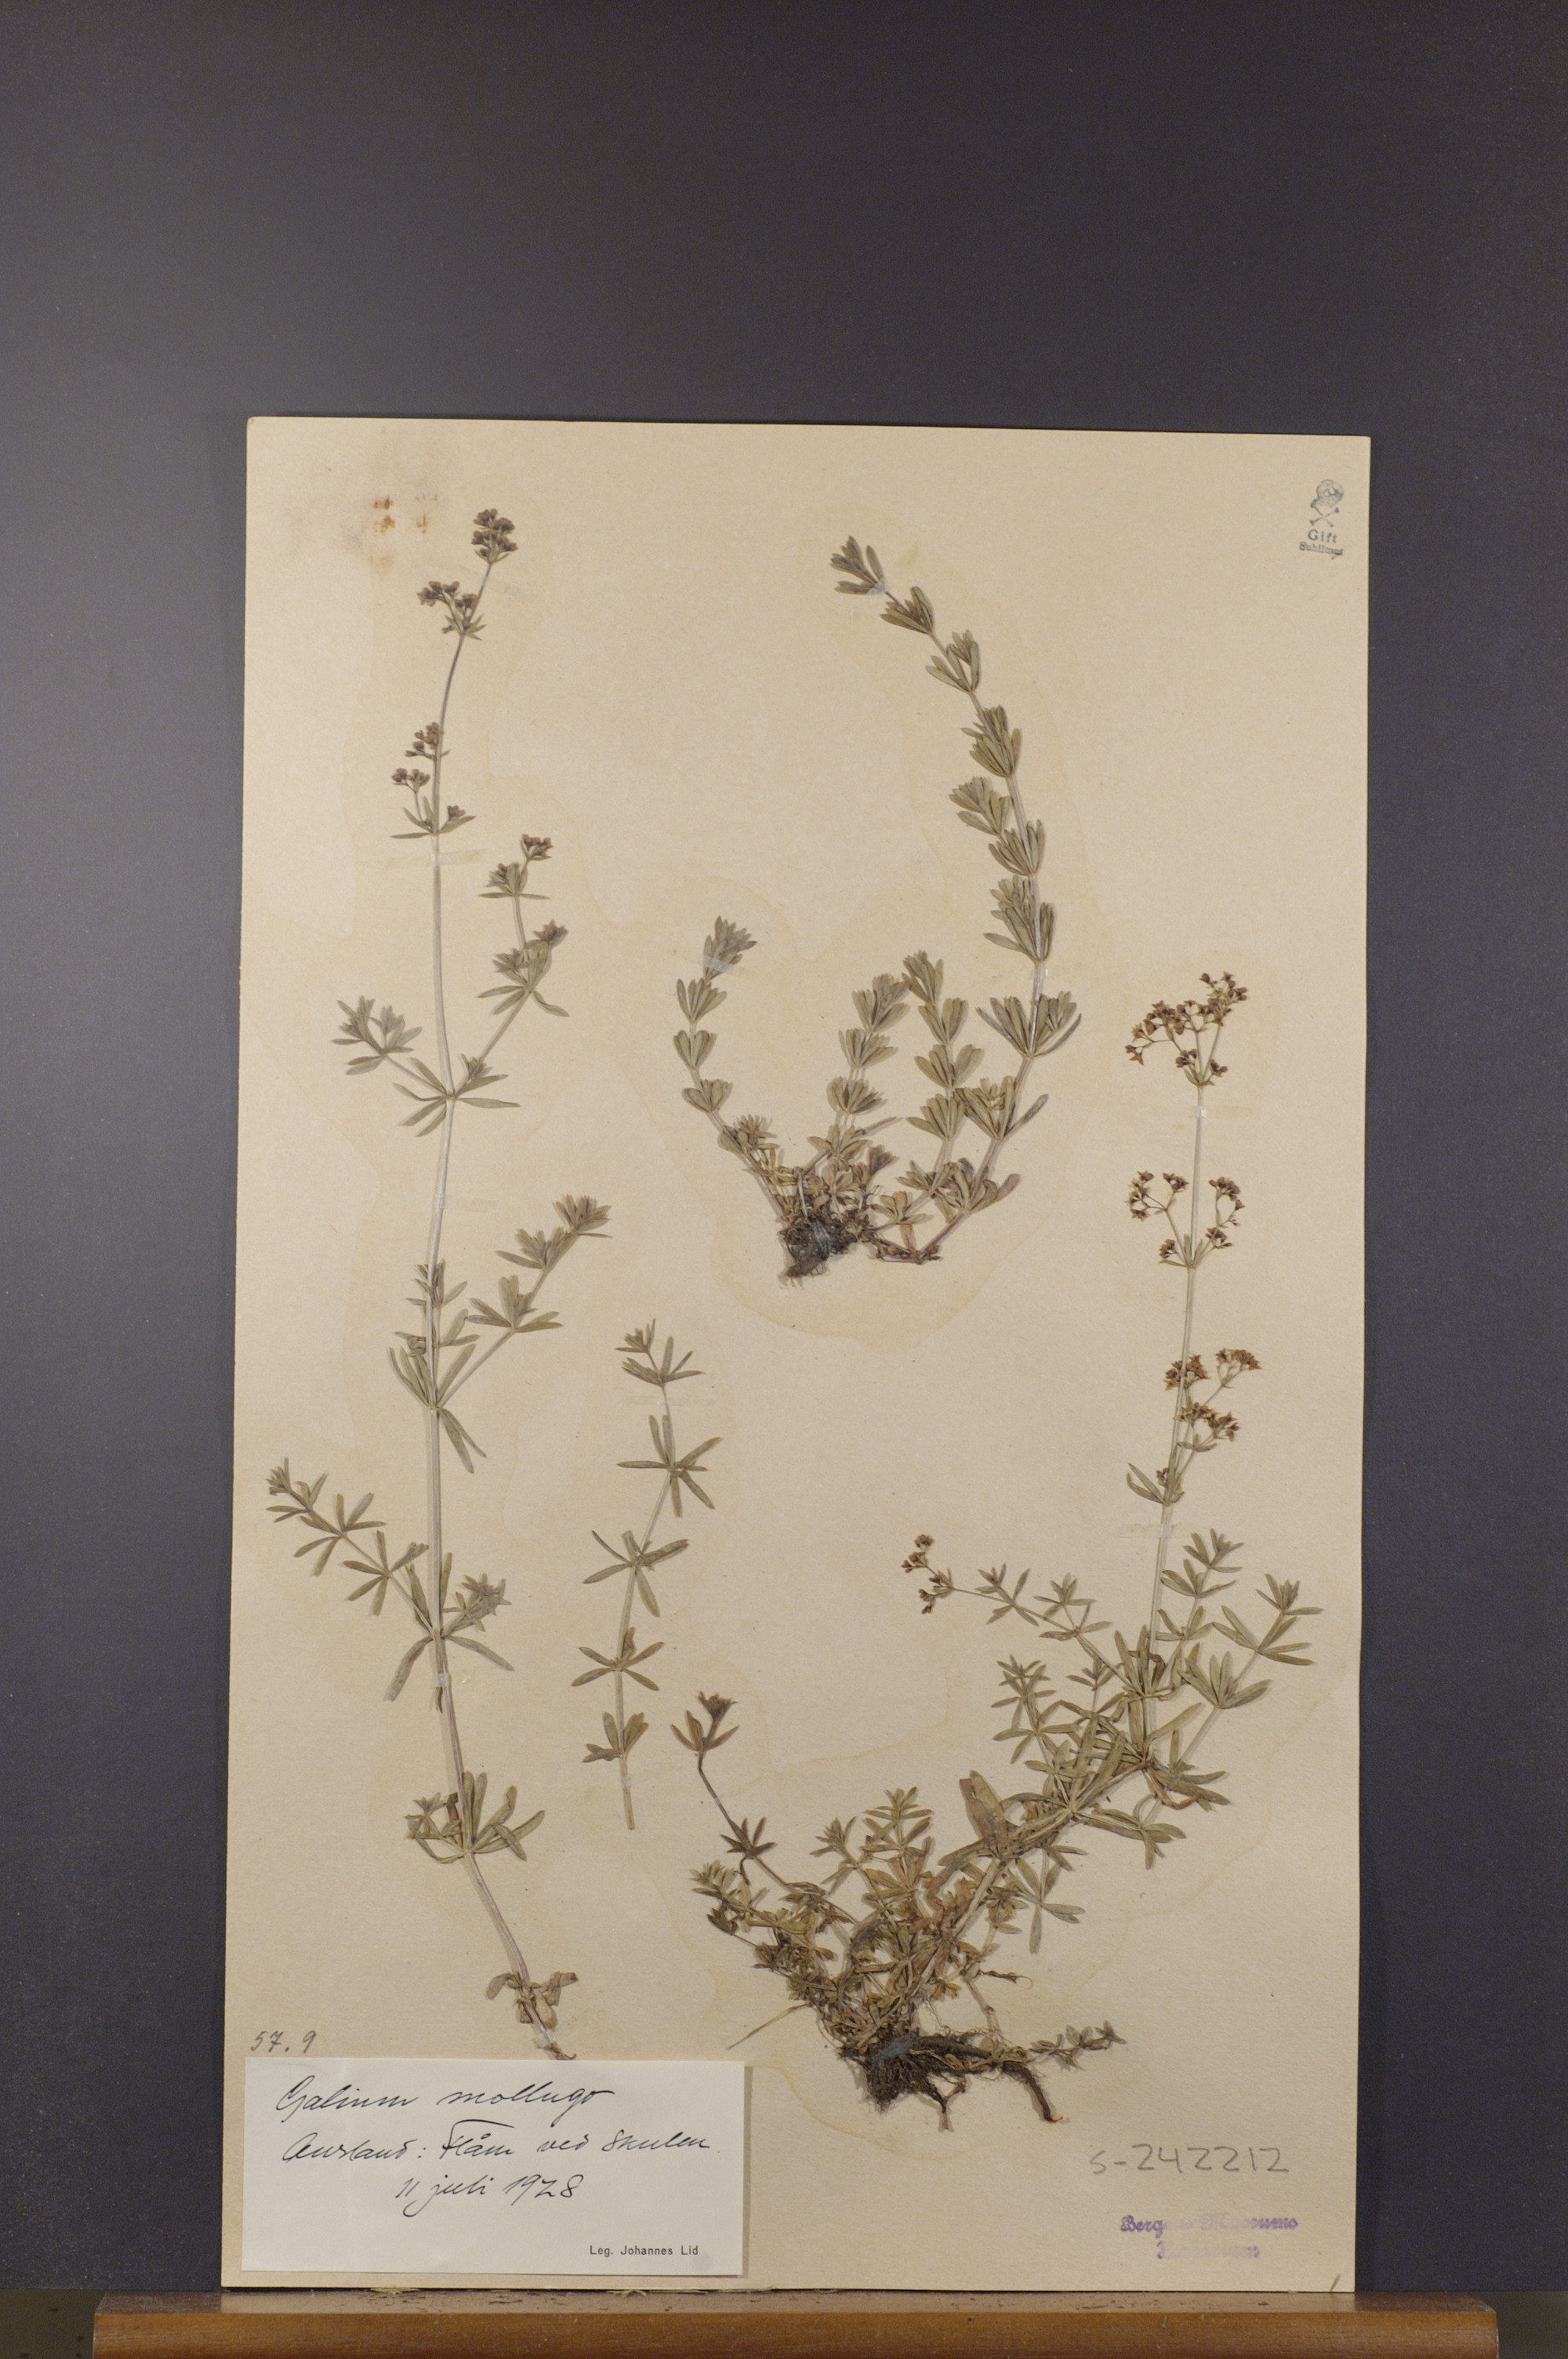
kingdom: Plantae
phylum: Tracheophyta
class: Magnoliopsida
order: Gentianales
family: Rubiaceae
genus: Galium
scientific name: Galium mollugo
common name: Hedge bedstraw
